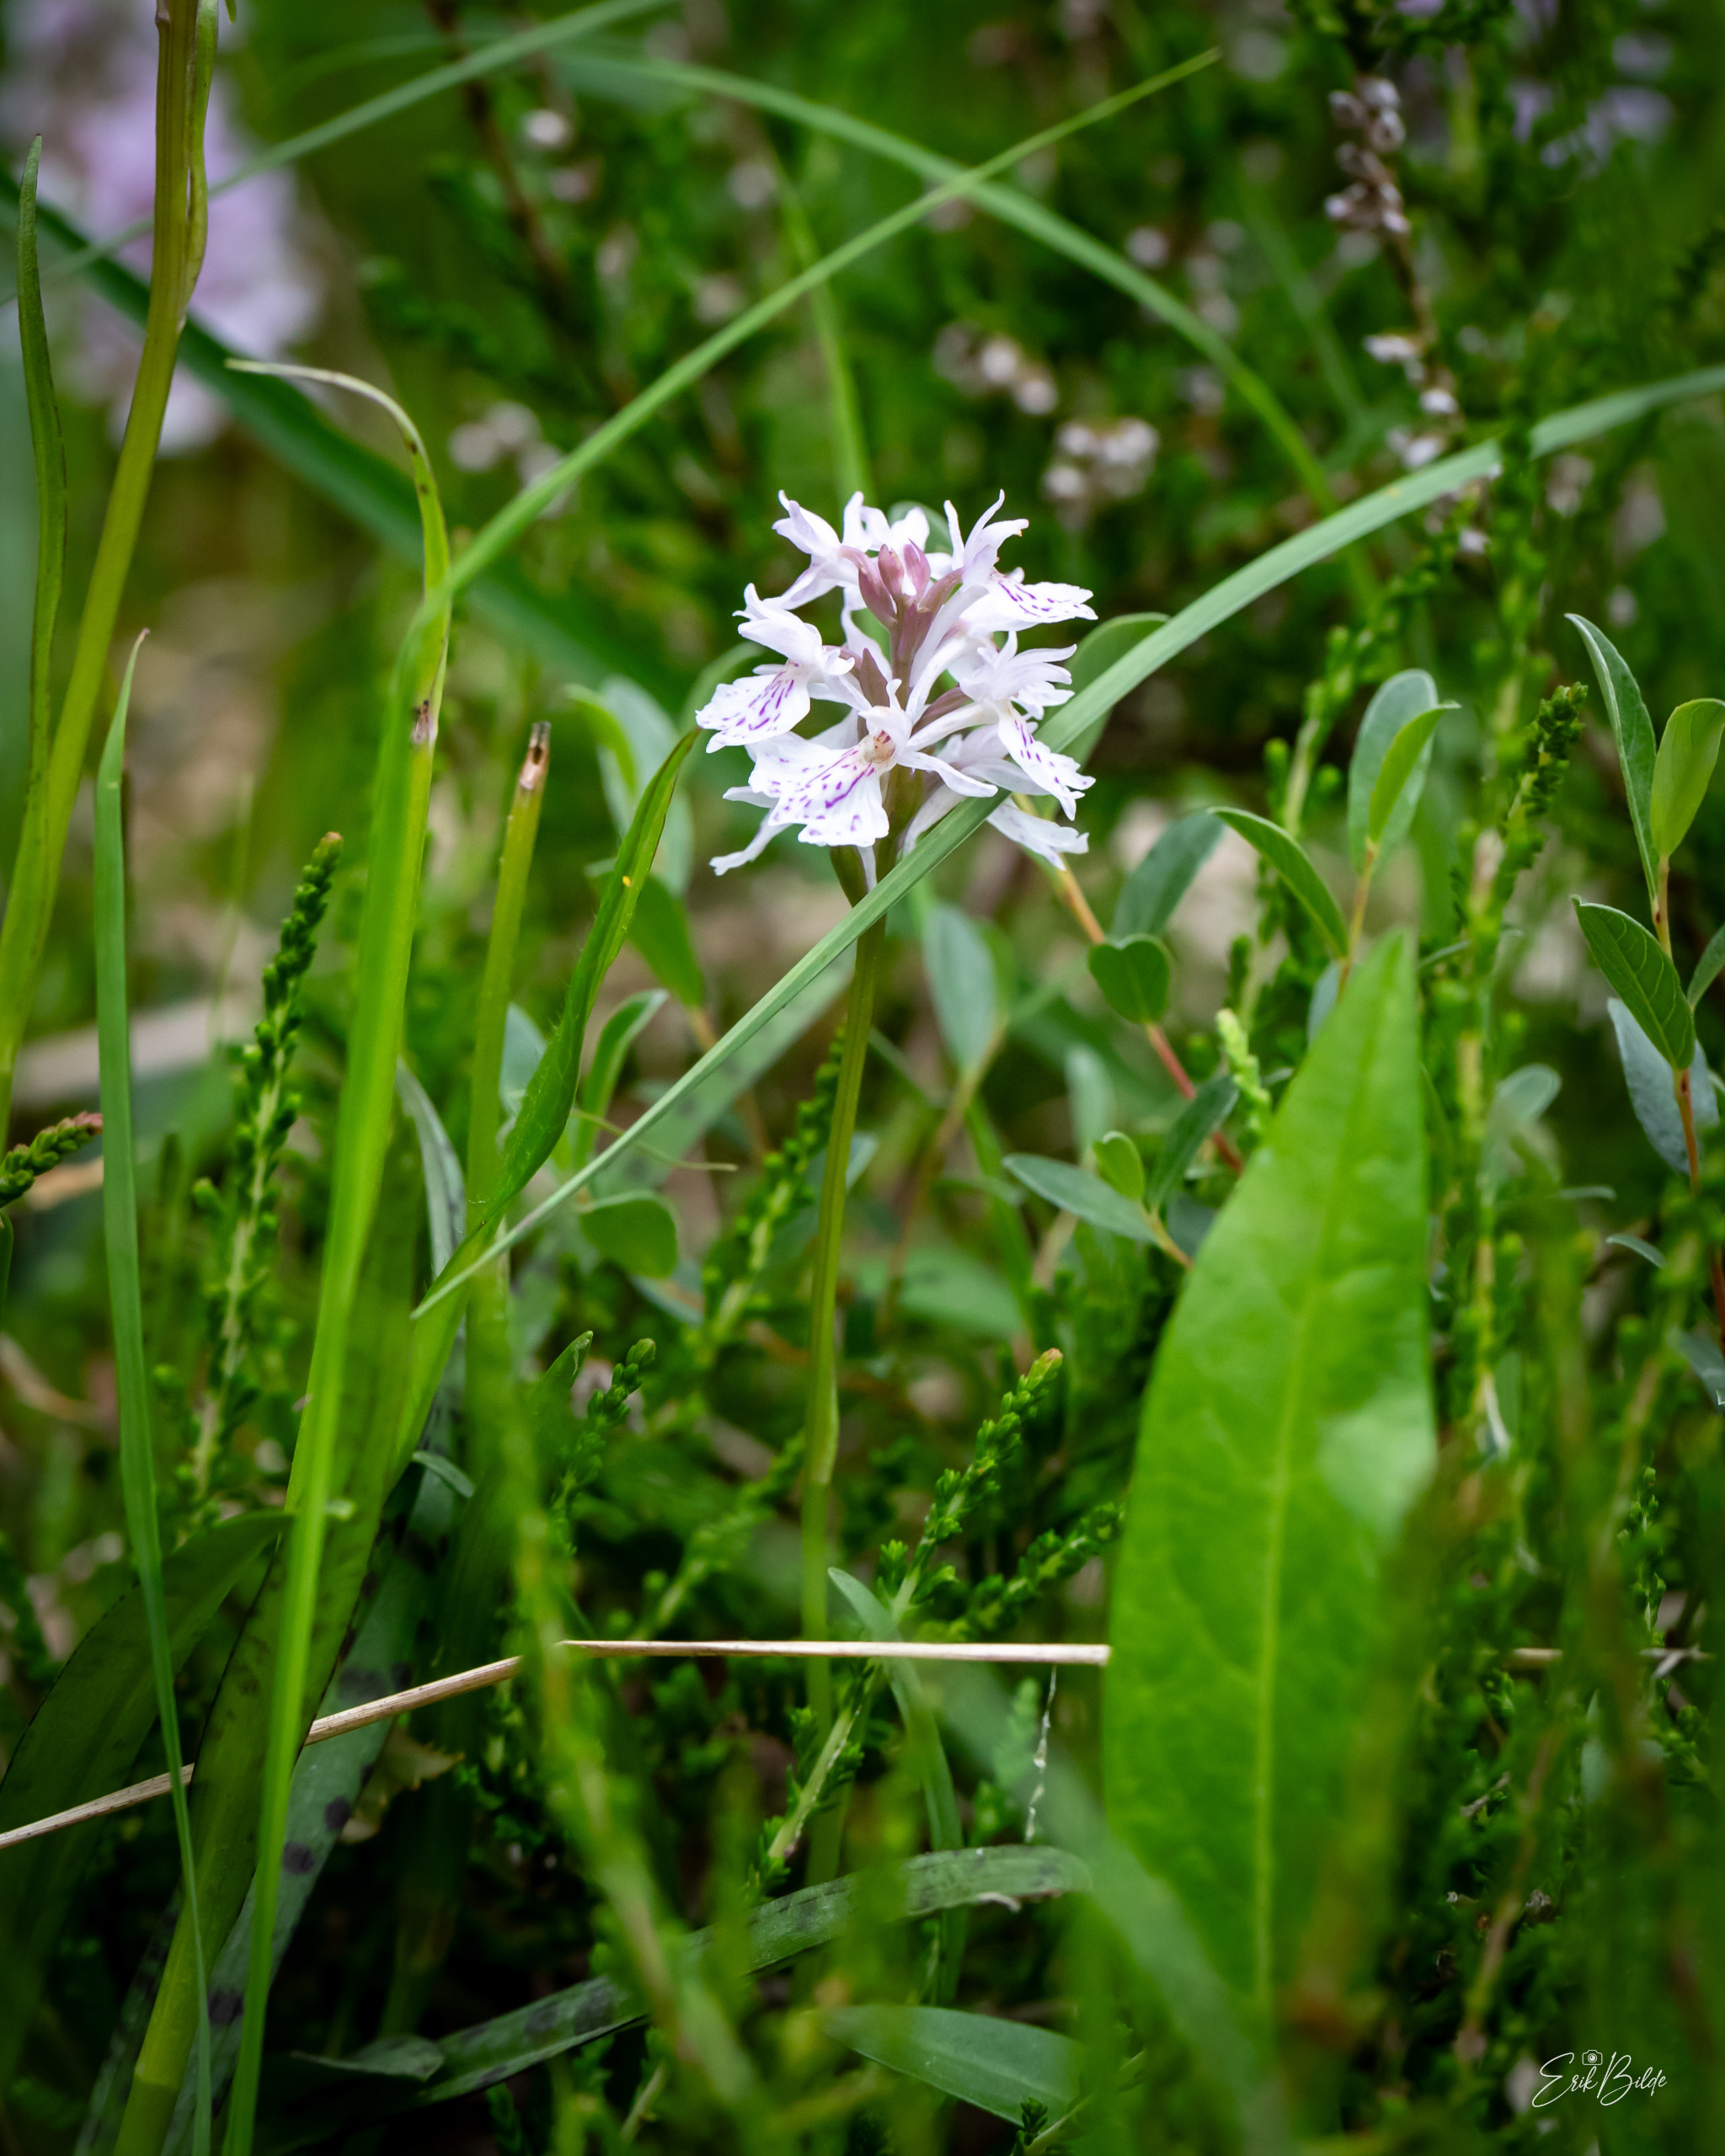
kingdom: Plantae
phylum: Tracheophyta
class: Liliopsida
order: Asparagales
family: Orchidaceae
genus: Dactylorhiza
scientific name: Dactylorhiza maculata
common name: Plettet gøgeurt
